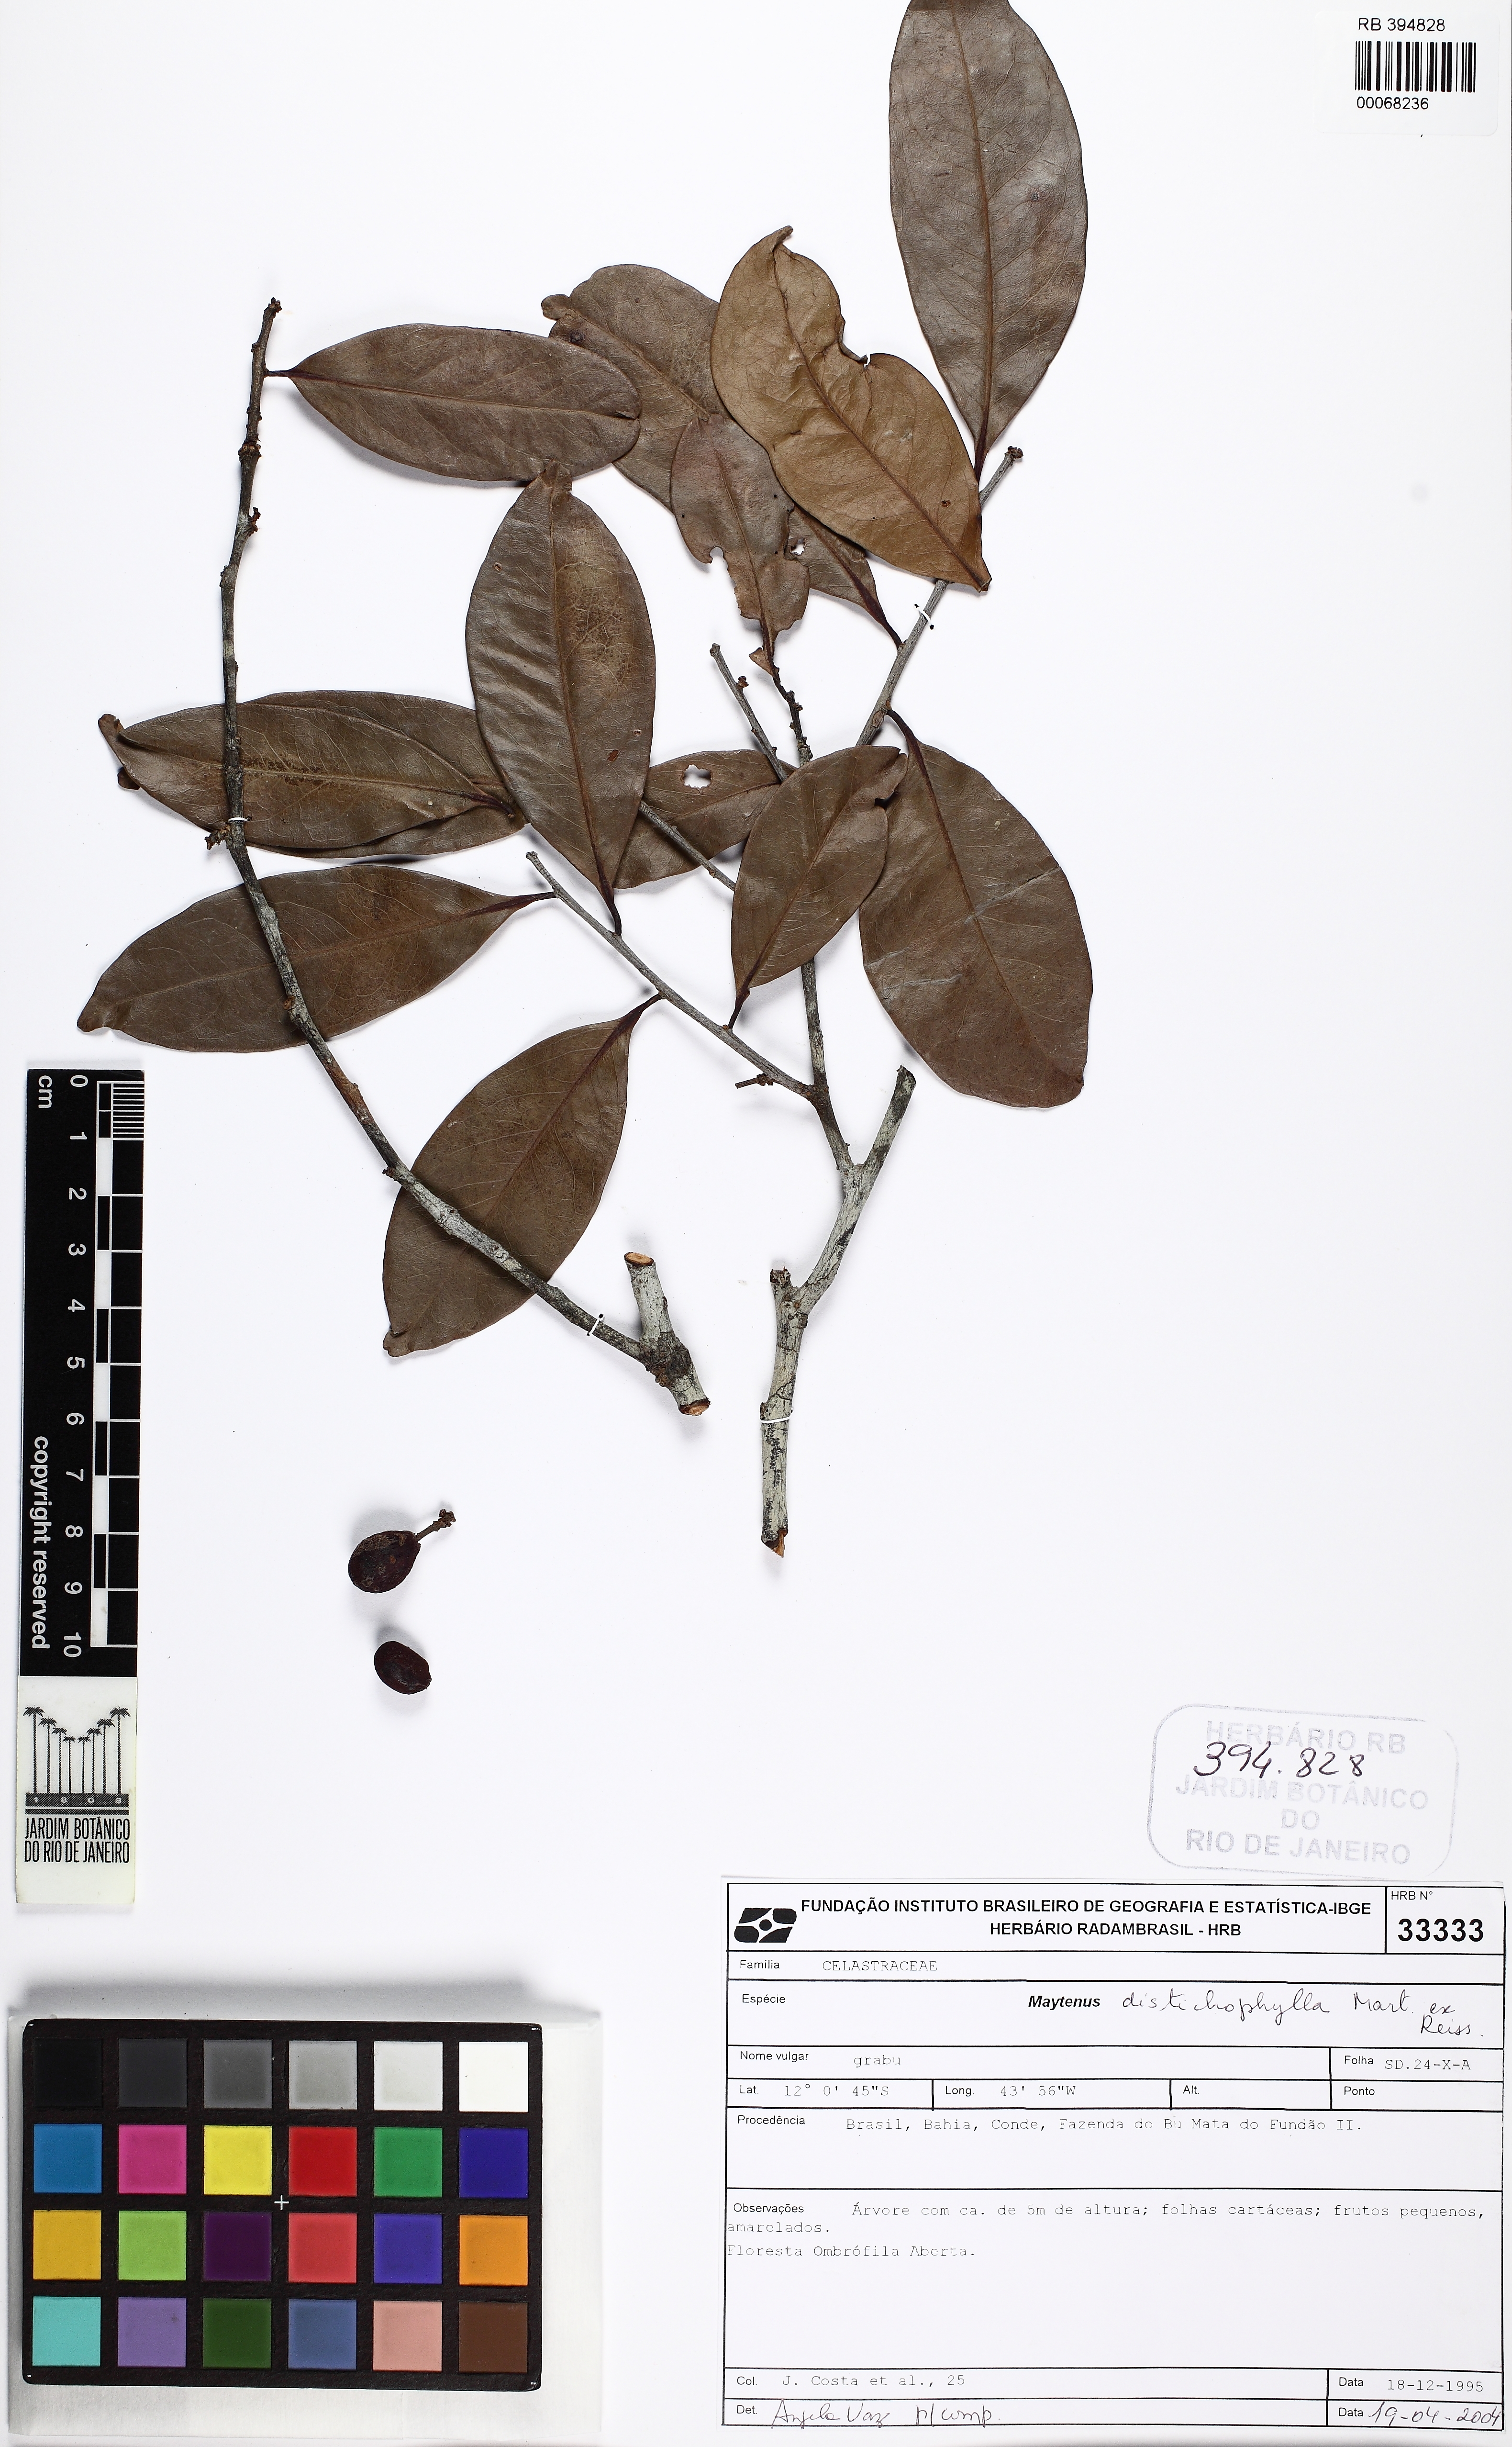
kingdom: Plantae
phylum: Tracheophyta
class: Magnoliopsida
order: Celastrales
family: Celastraceae
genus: Monteverdia
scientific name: Monteverdia distichophylla
